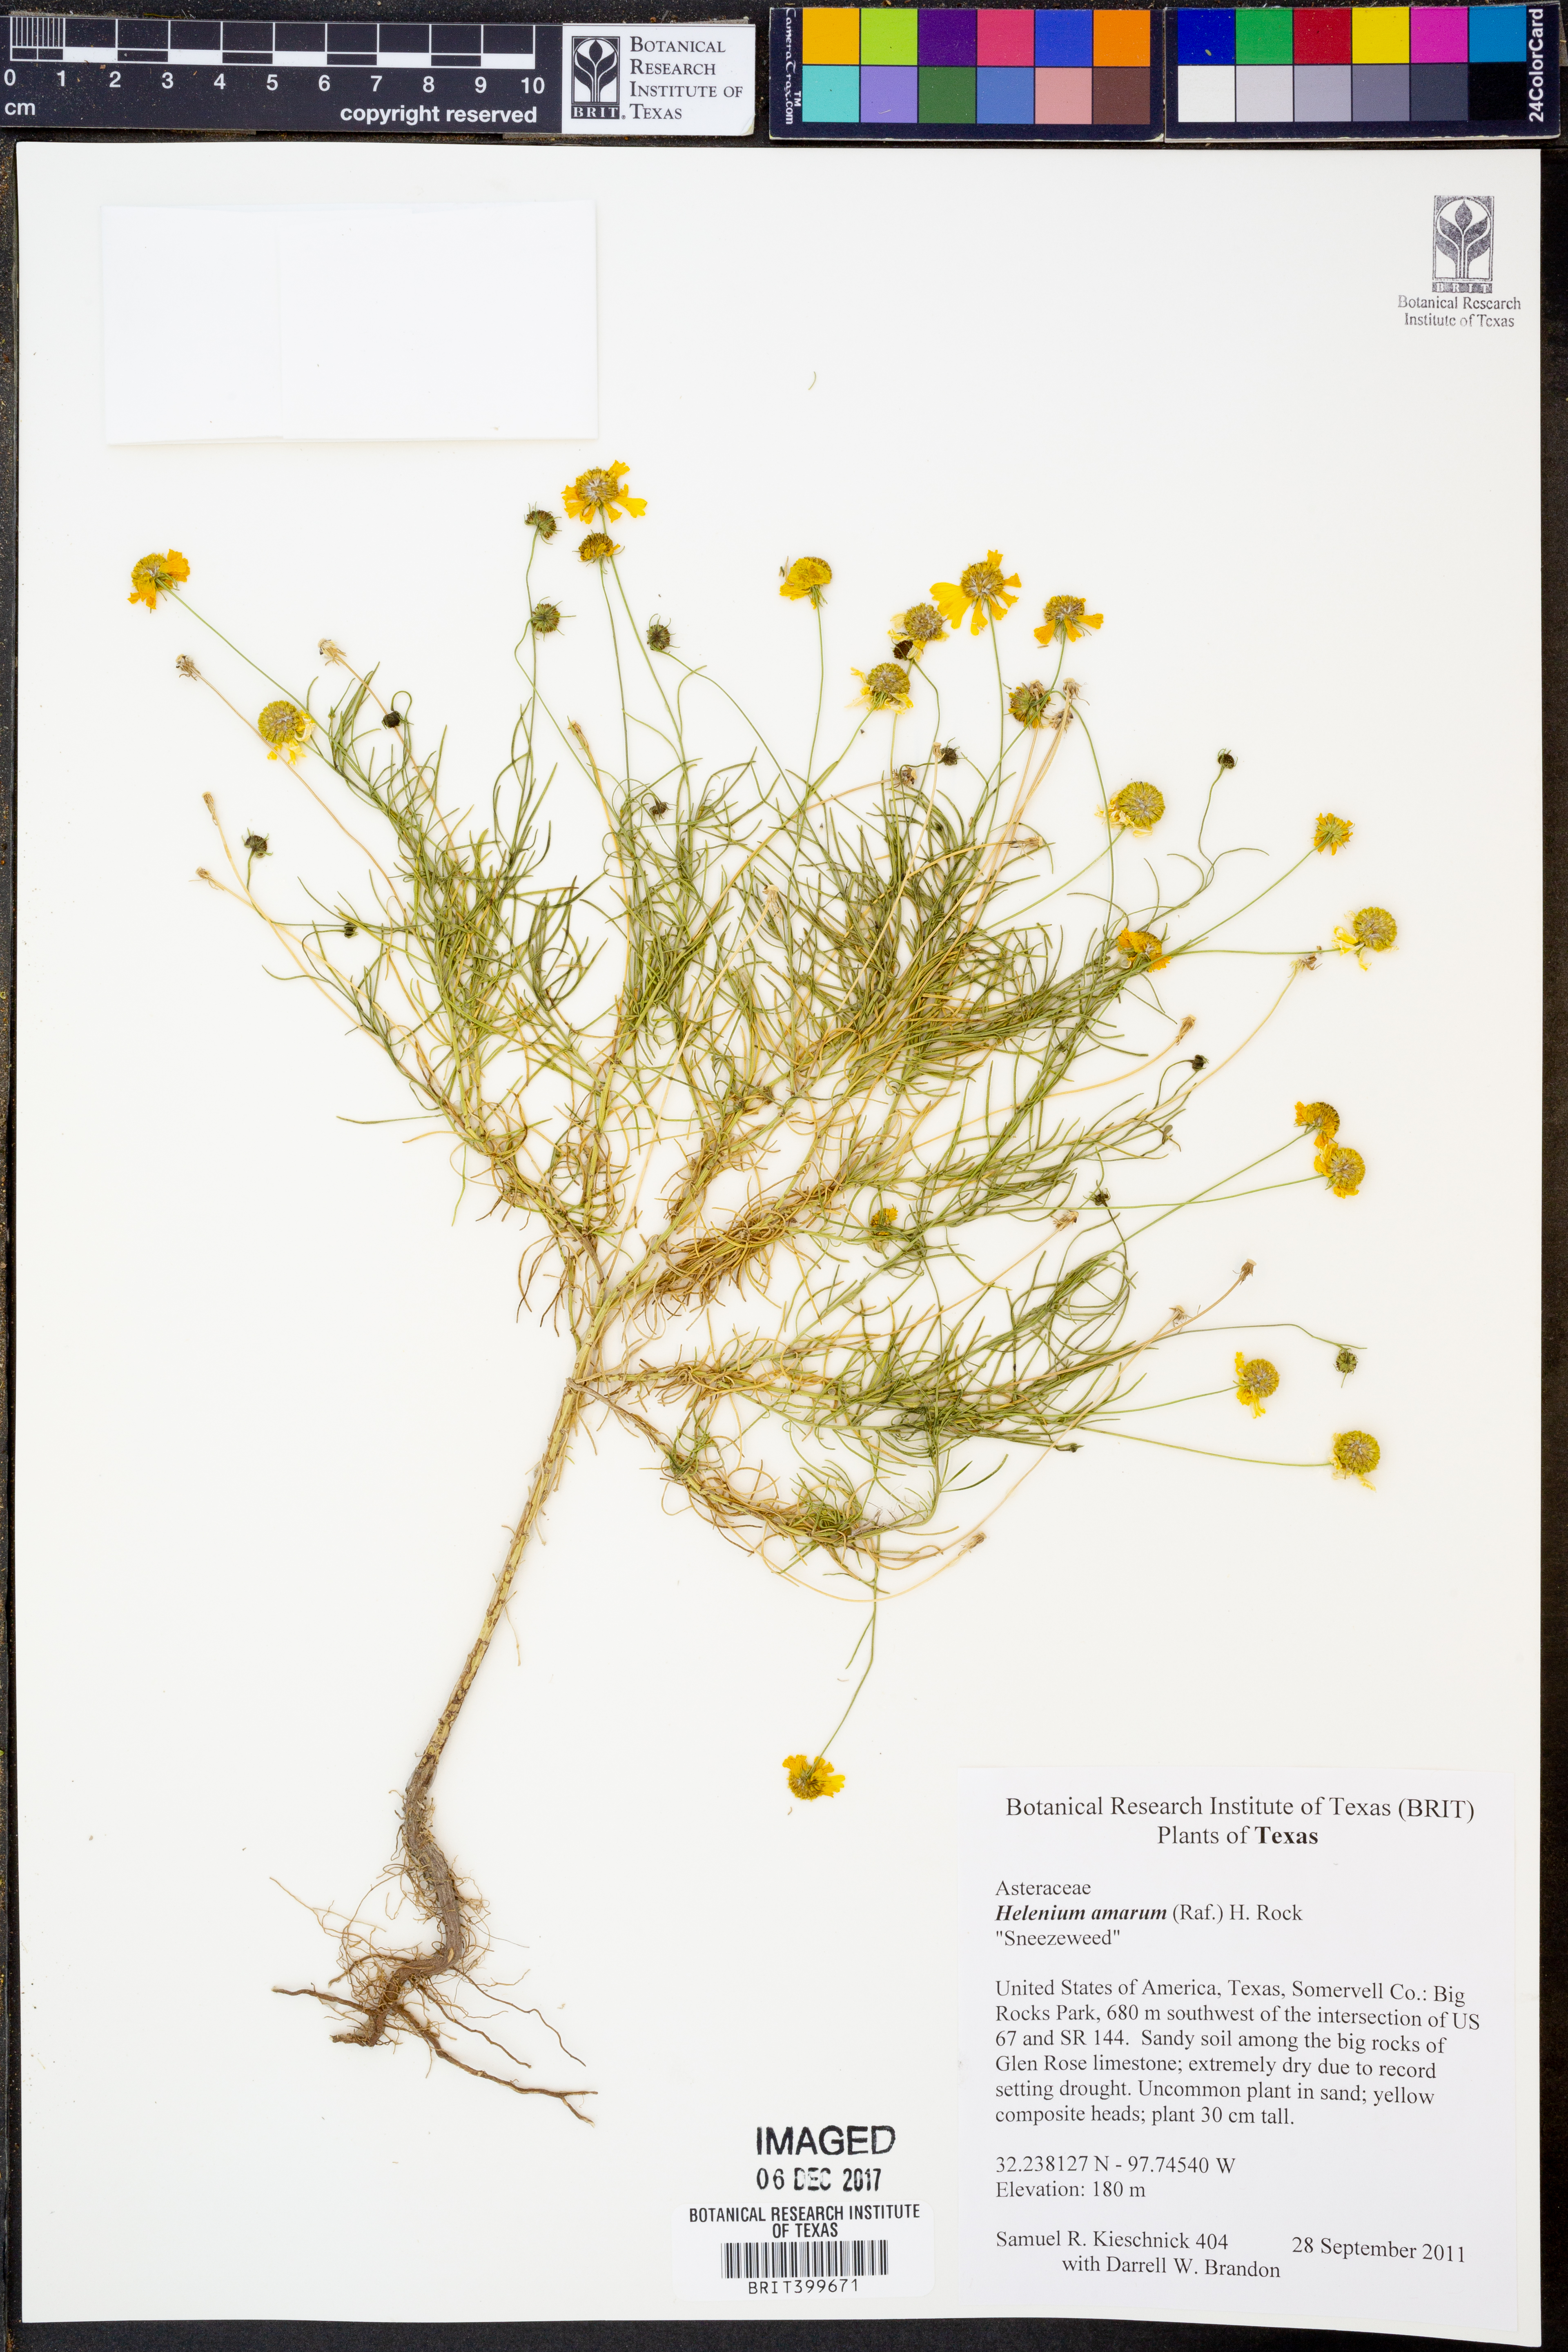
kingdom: Plantae
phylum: Tracheophyta
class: Magnoliopsida
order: Asterales
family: Asteraceae
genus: Helenium
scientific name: Helenium amarum
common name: Bitter sneezeweed
